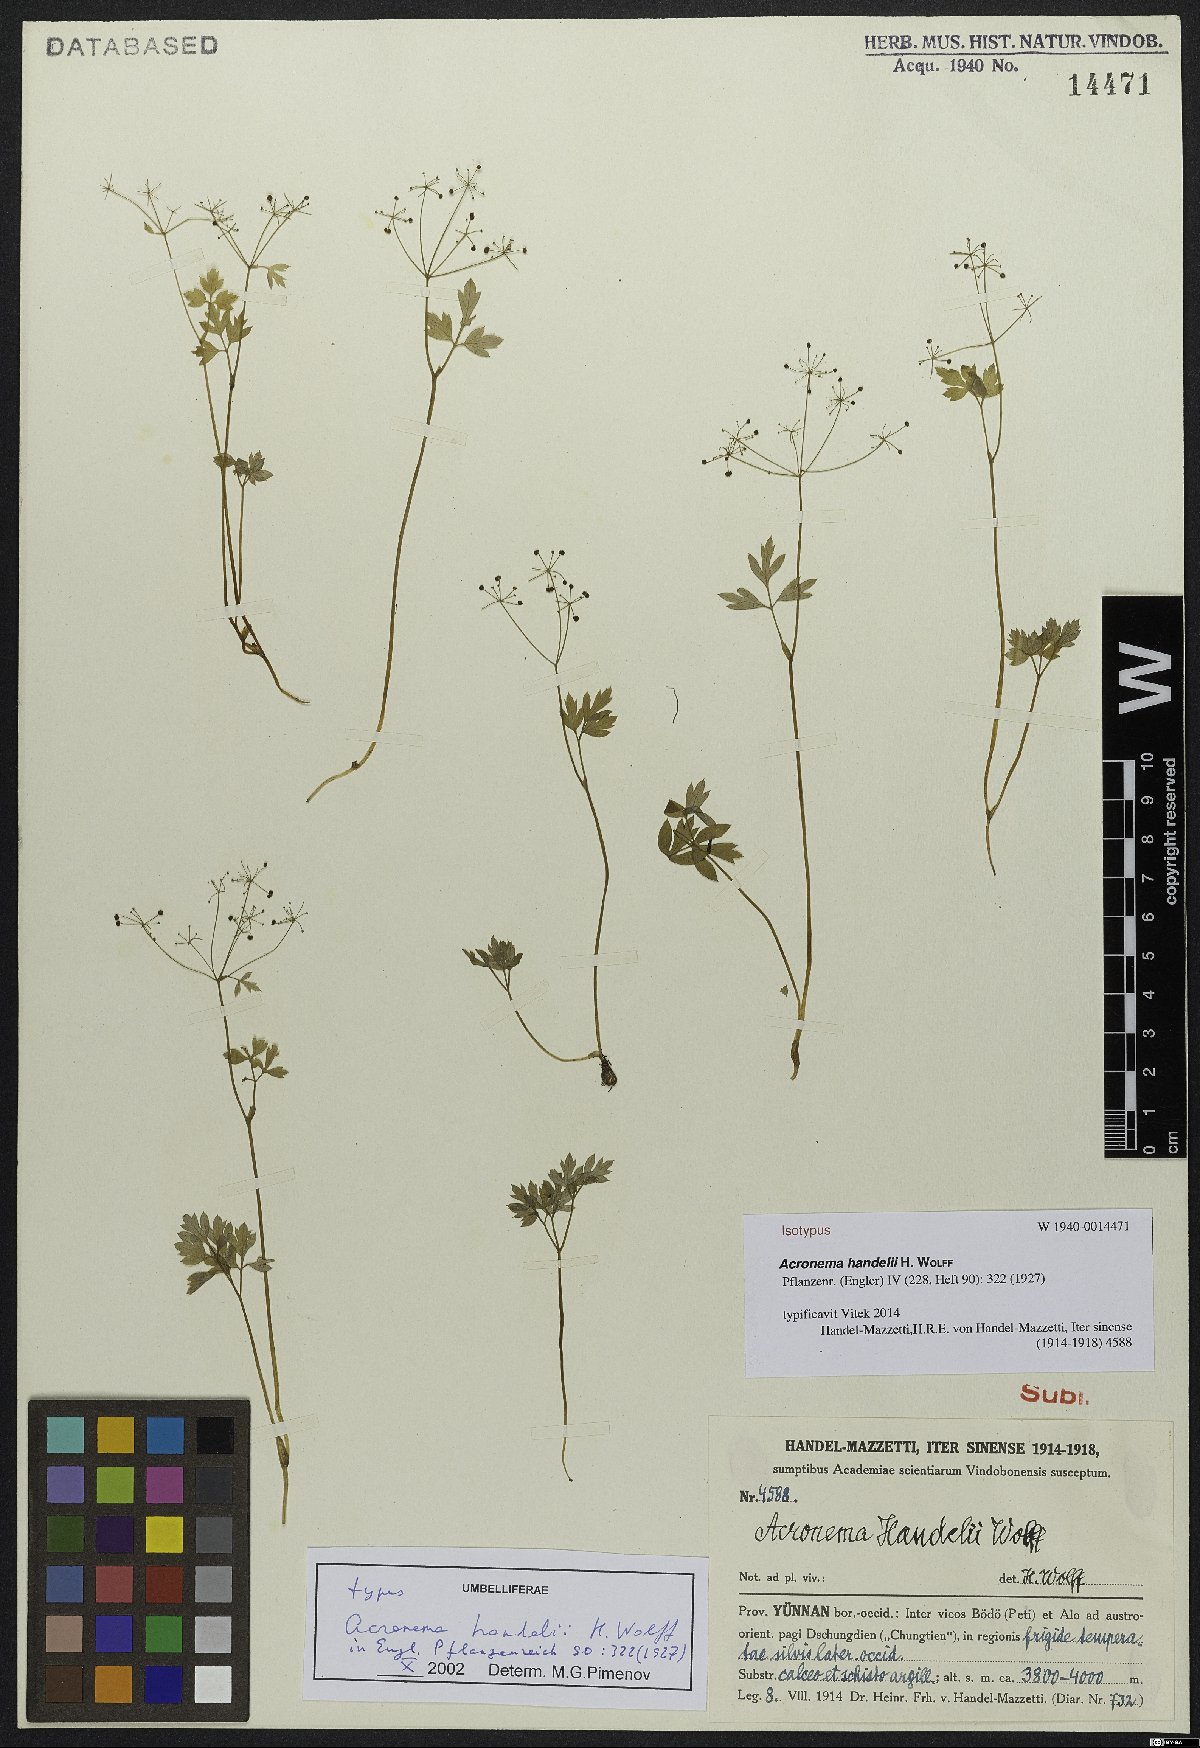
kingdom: Plantae
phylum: Tracheophyta
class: Magnoliopsida
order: Apiales
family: Apiaceae
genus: Acronema
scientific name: Acronema handelii
